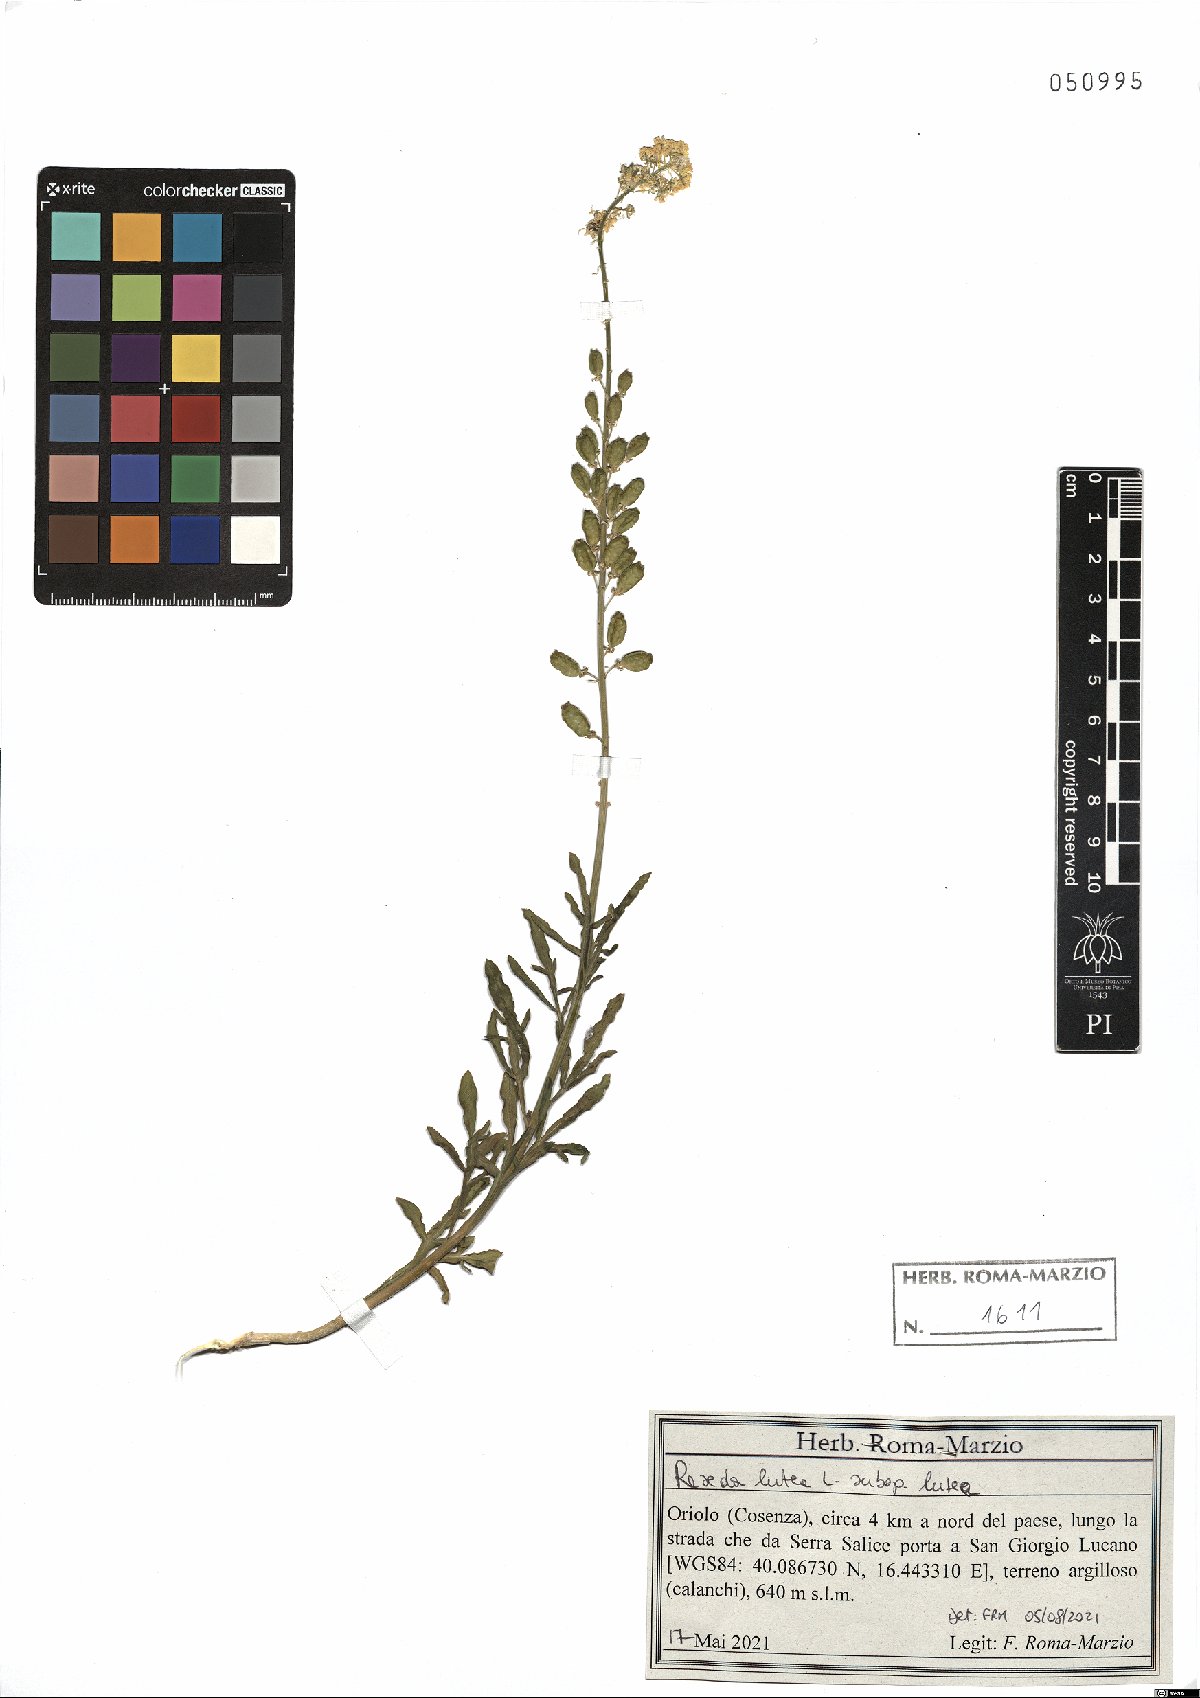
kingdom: Plantae
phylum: Tracheophyta
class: Magnoliopsida
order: Brassicales
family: Resedaceae
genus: Reseda
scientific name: Reseda lutea
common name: Wild mignonette
